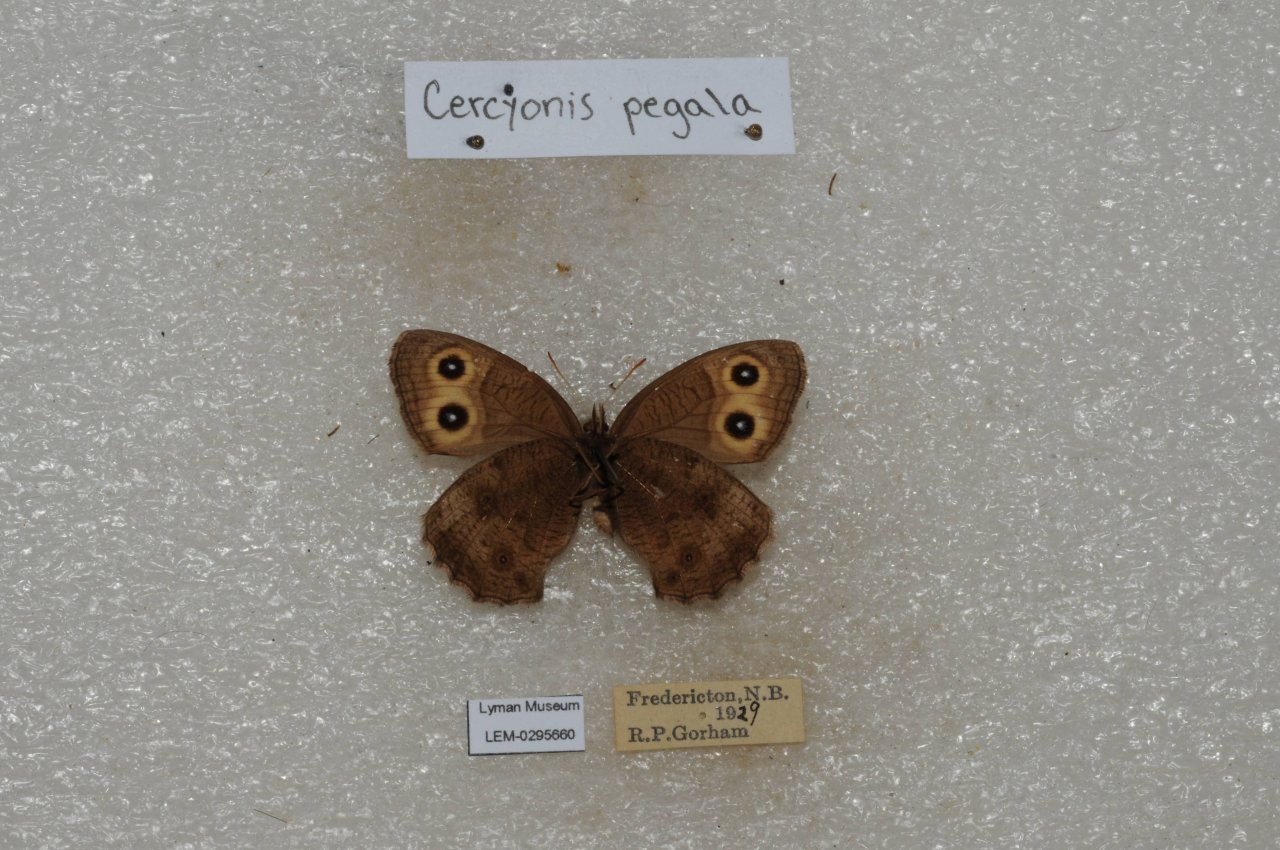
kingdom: Animalia
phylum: Arthropoda
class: Insecta
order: Lepidoptera
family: Nymphalidae
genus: Cercyonis
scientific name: Cercyonis pegala
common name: Common Wood-Nymph
